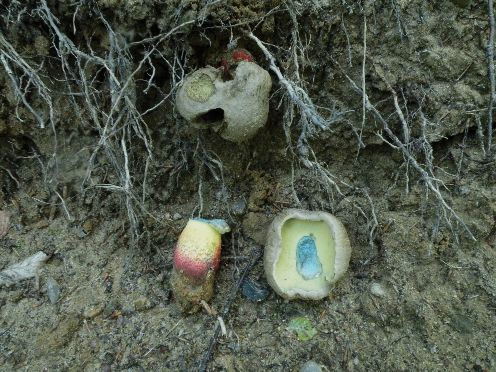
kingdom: Fungi
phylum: Basidiomycota
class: Agaricomycetes
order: Boletales
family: Boletaceae
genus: Caloboletus
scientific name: Caloboletus calopus
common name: skønfodet rørhat
